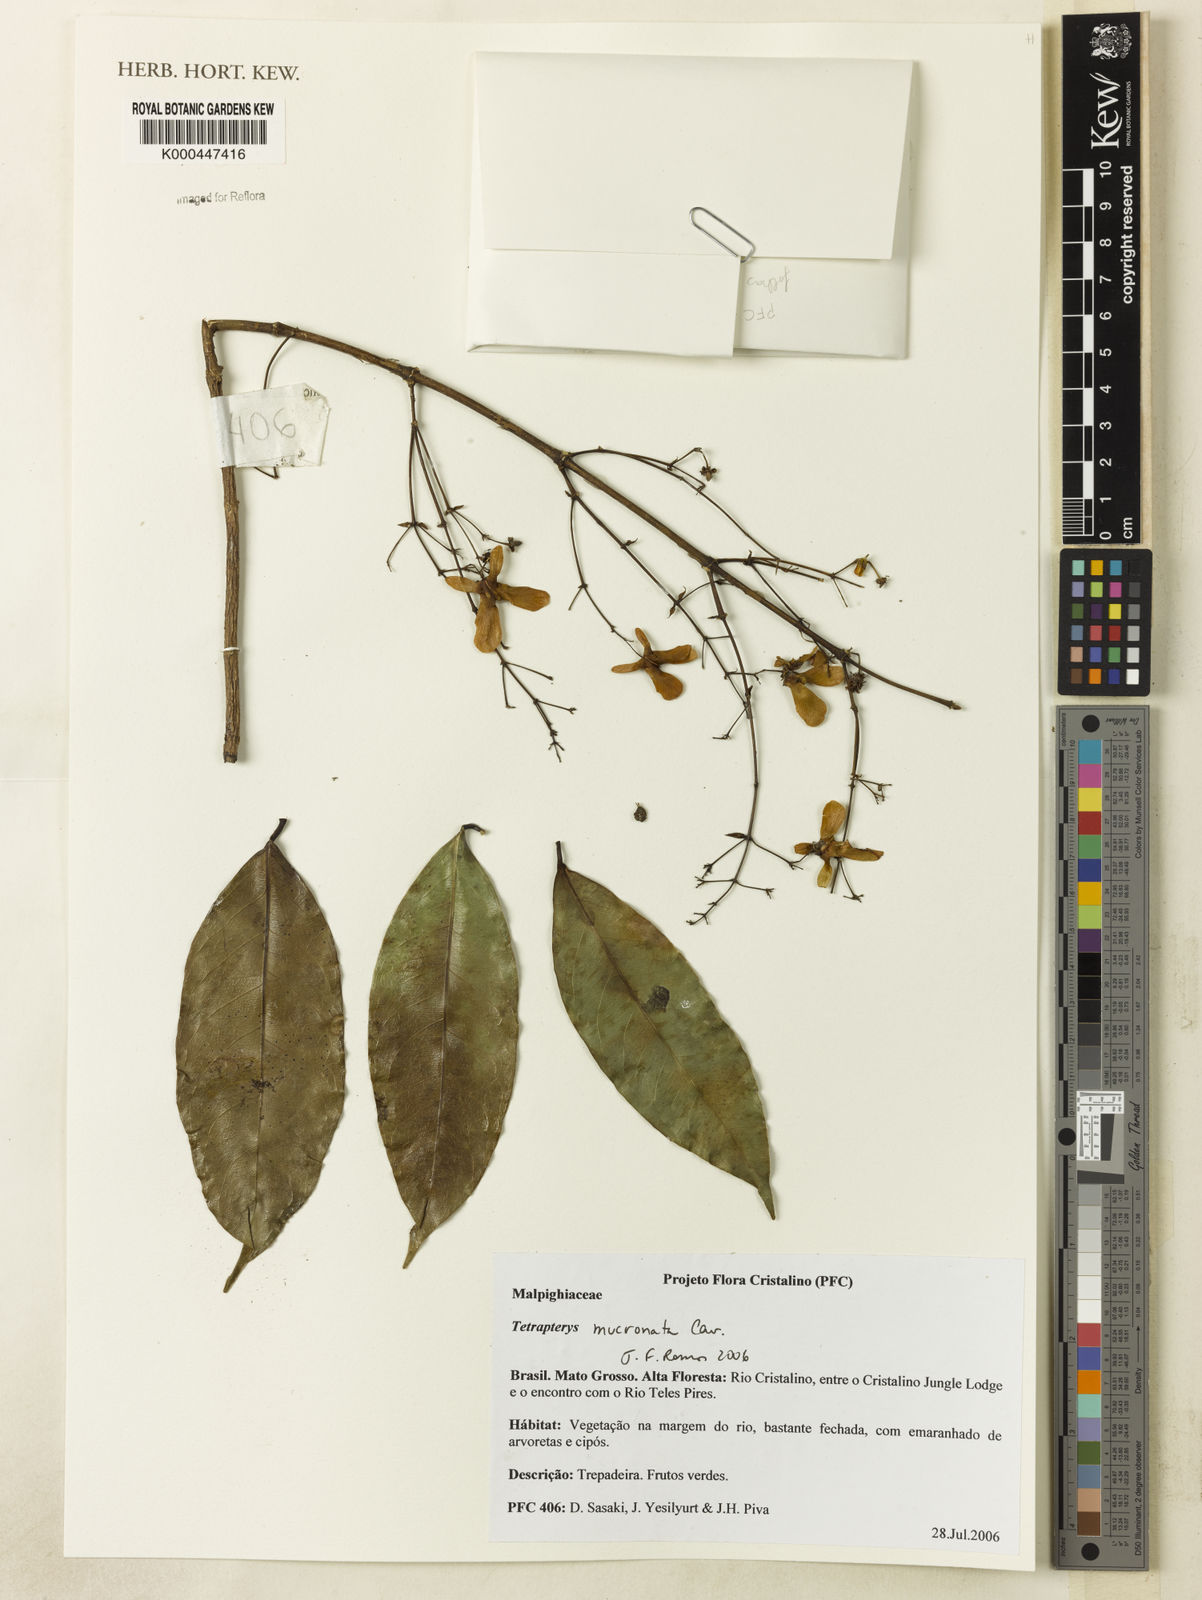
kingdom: Plantae
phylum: Tracheophyta
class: Magnoliopsida
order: Malpighiales
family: Malpighiaceae
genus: Tetrapterys
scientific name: Tetrapterys mucronata
